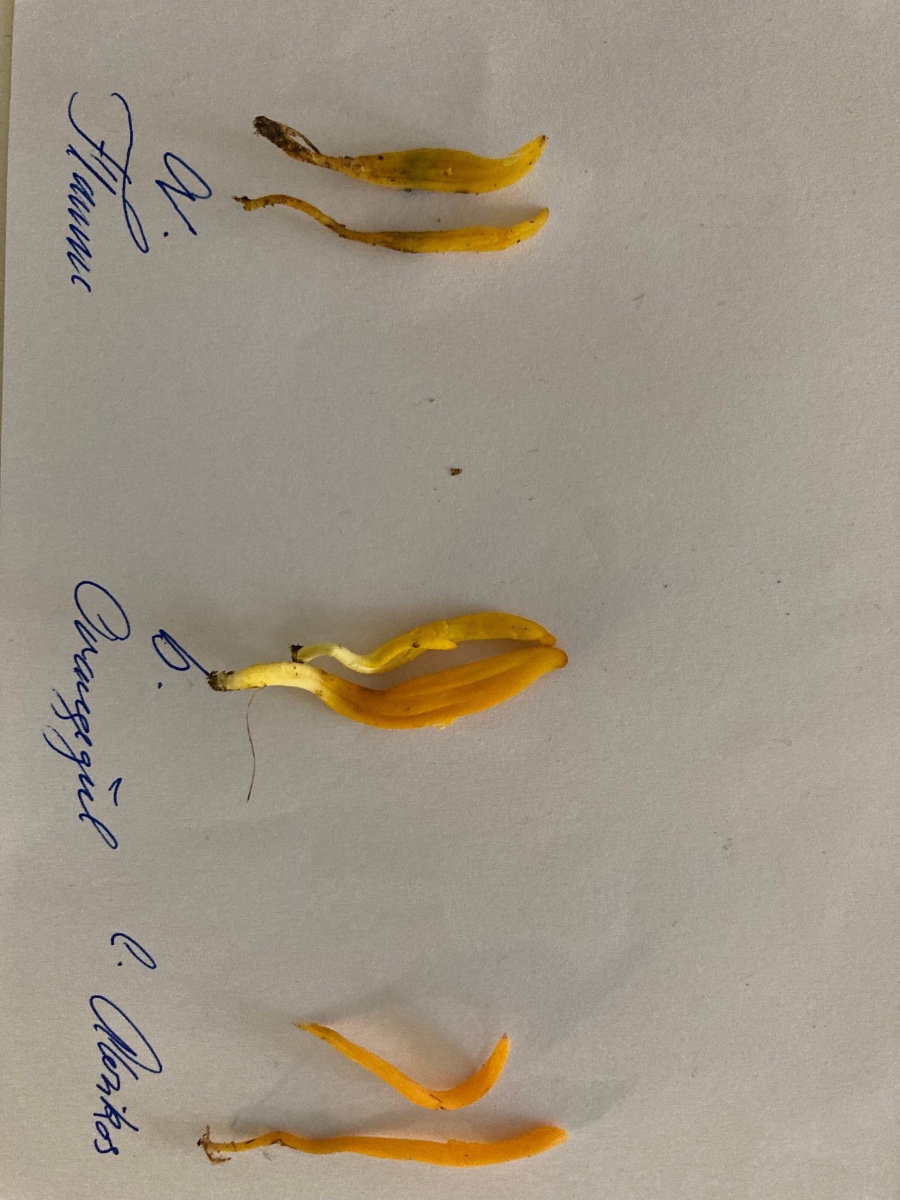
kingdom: Fungi
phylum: Basidiomycota
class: Agaricomycetes
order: Agaricales
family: Clavariaceae
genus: Clavulinopsis
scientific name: Clavulinopsis laeticolor
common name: flamme-køllesvamp
